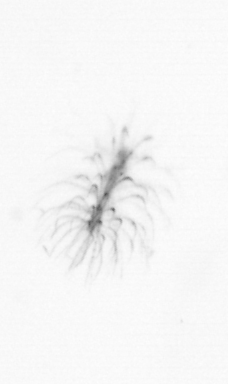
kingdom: Chromista
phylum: Ochrophyta
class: Bacillariophyceae
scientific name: Bacillariophyceae
